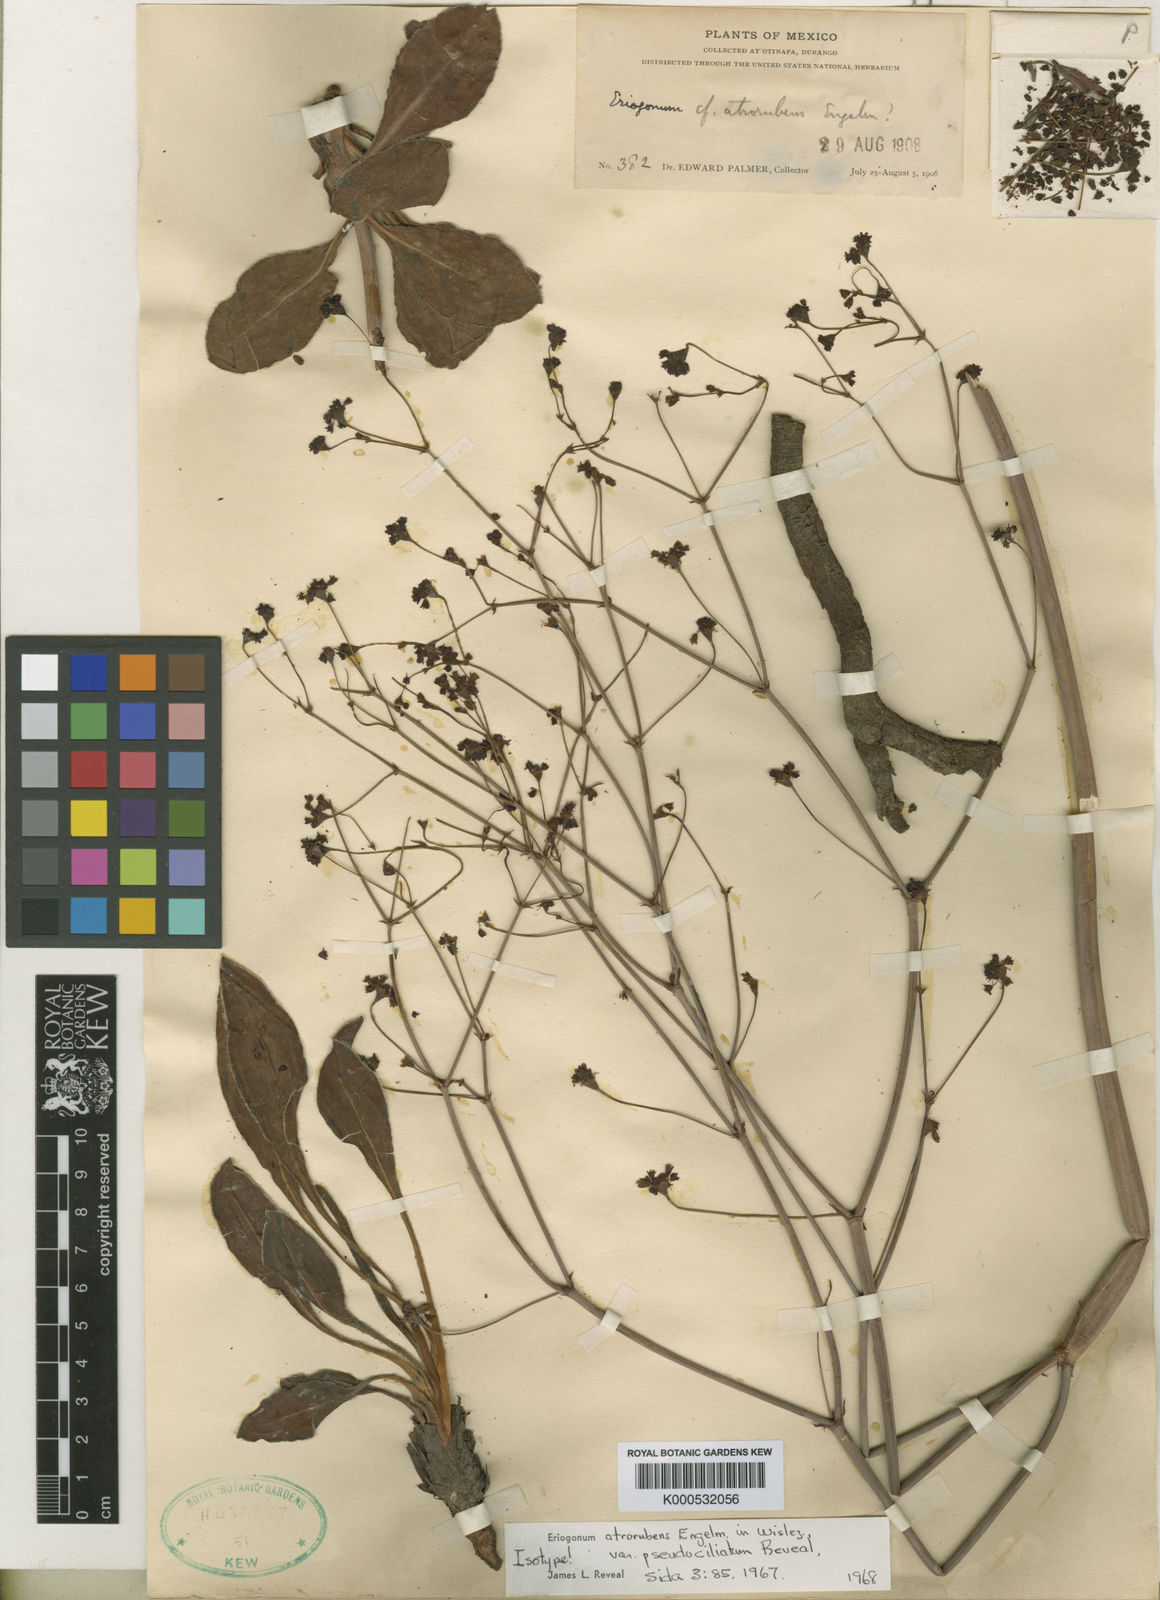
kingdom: Plantae
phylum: Tracheophyta
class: Magnoliopsida
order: Caryophyllales
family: Polygonaceae
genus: Eriogonum
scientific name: Eriogonum atrorubens
